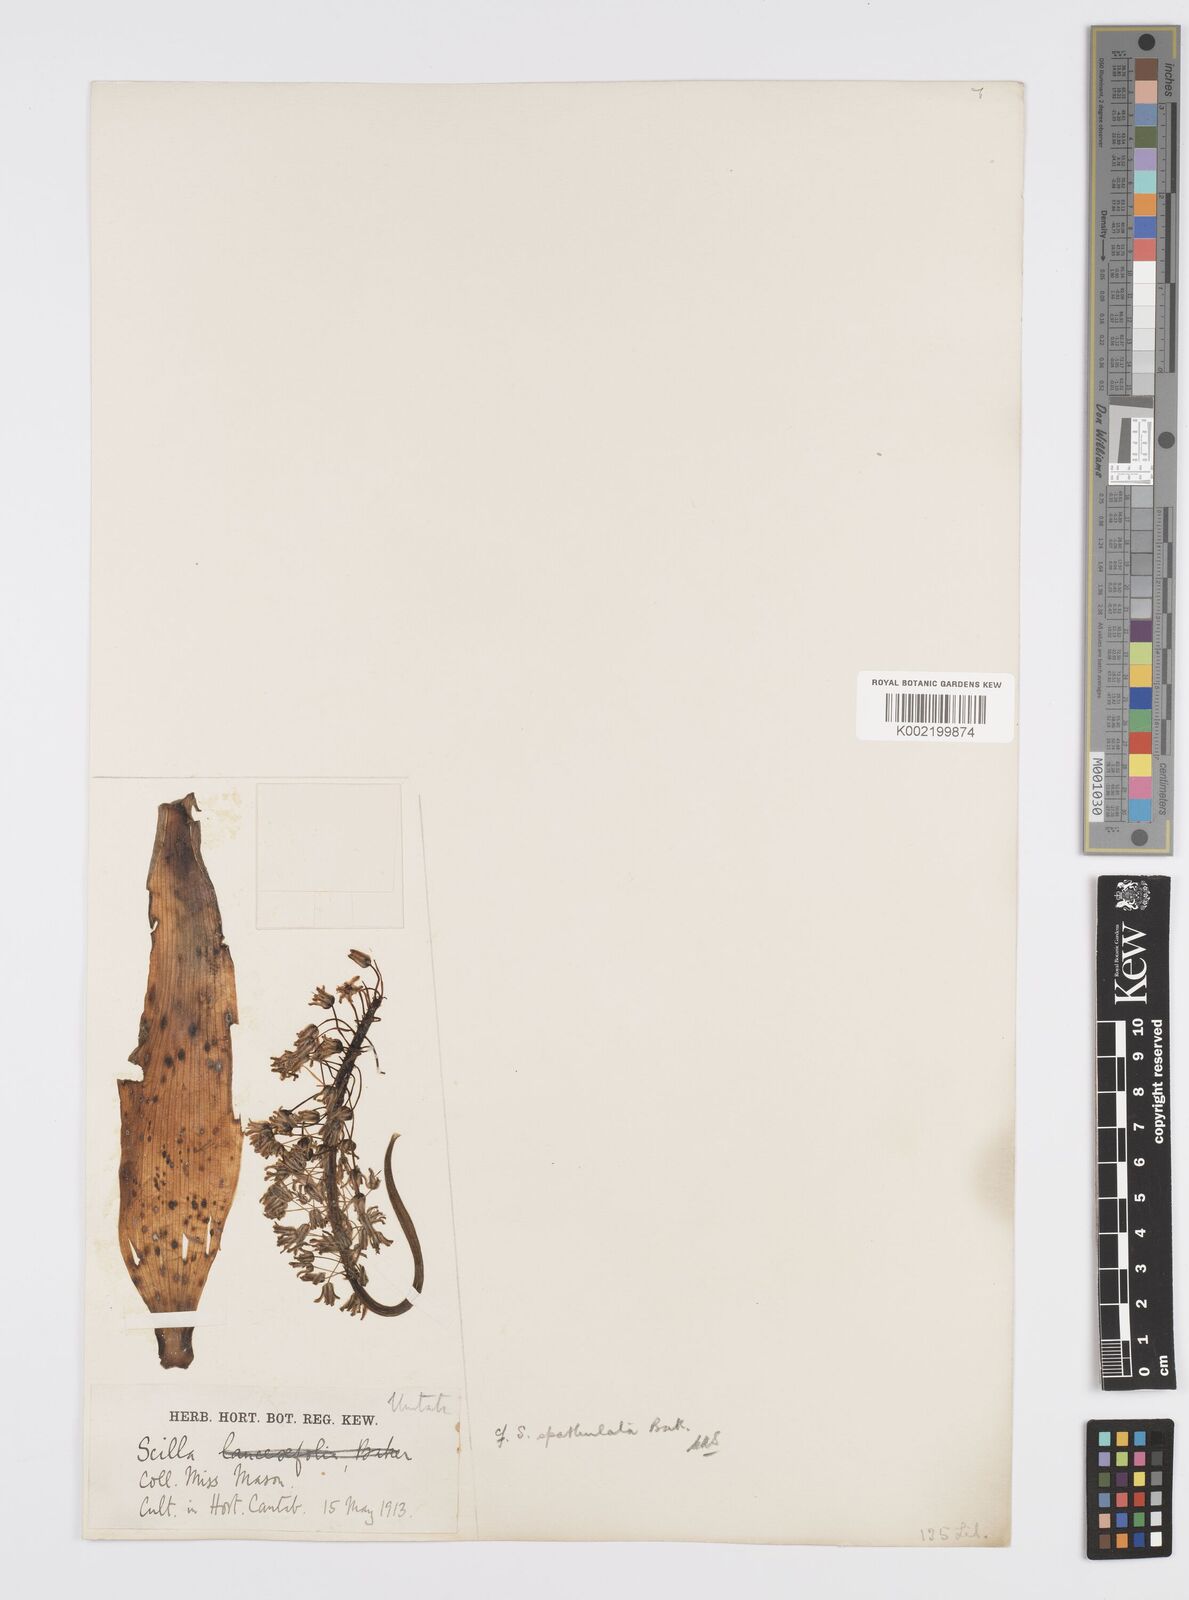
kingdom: Plantae
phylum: Tracheophyta
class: Liliopsida
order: Asparagales
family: Asparagaceae
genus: Ledebouria
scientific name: Ledebouria floribunda
